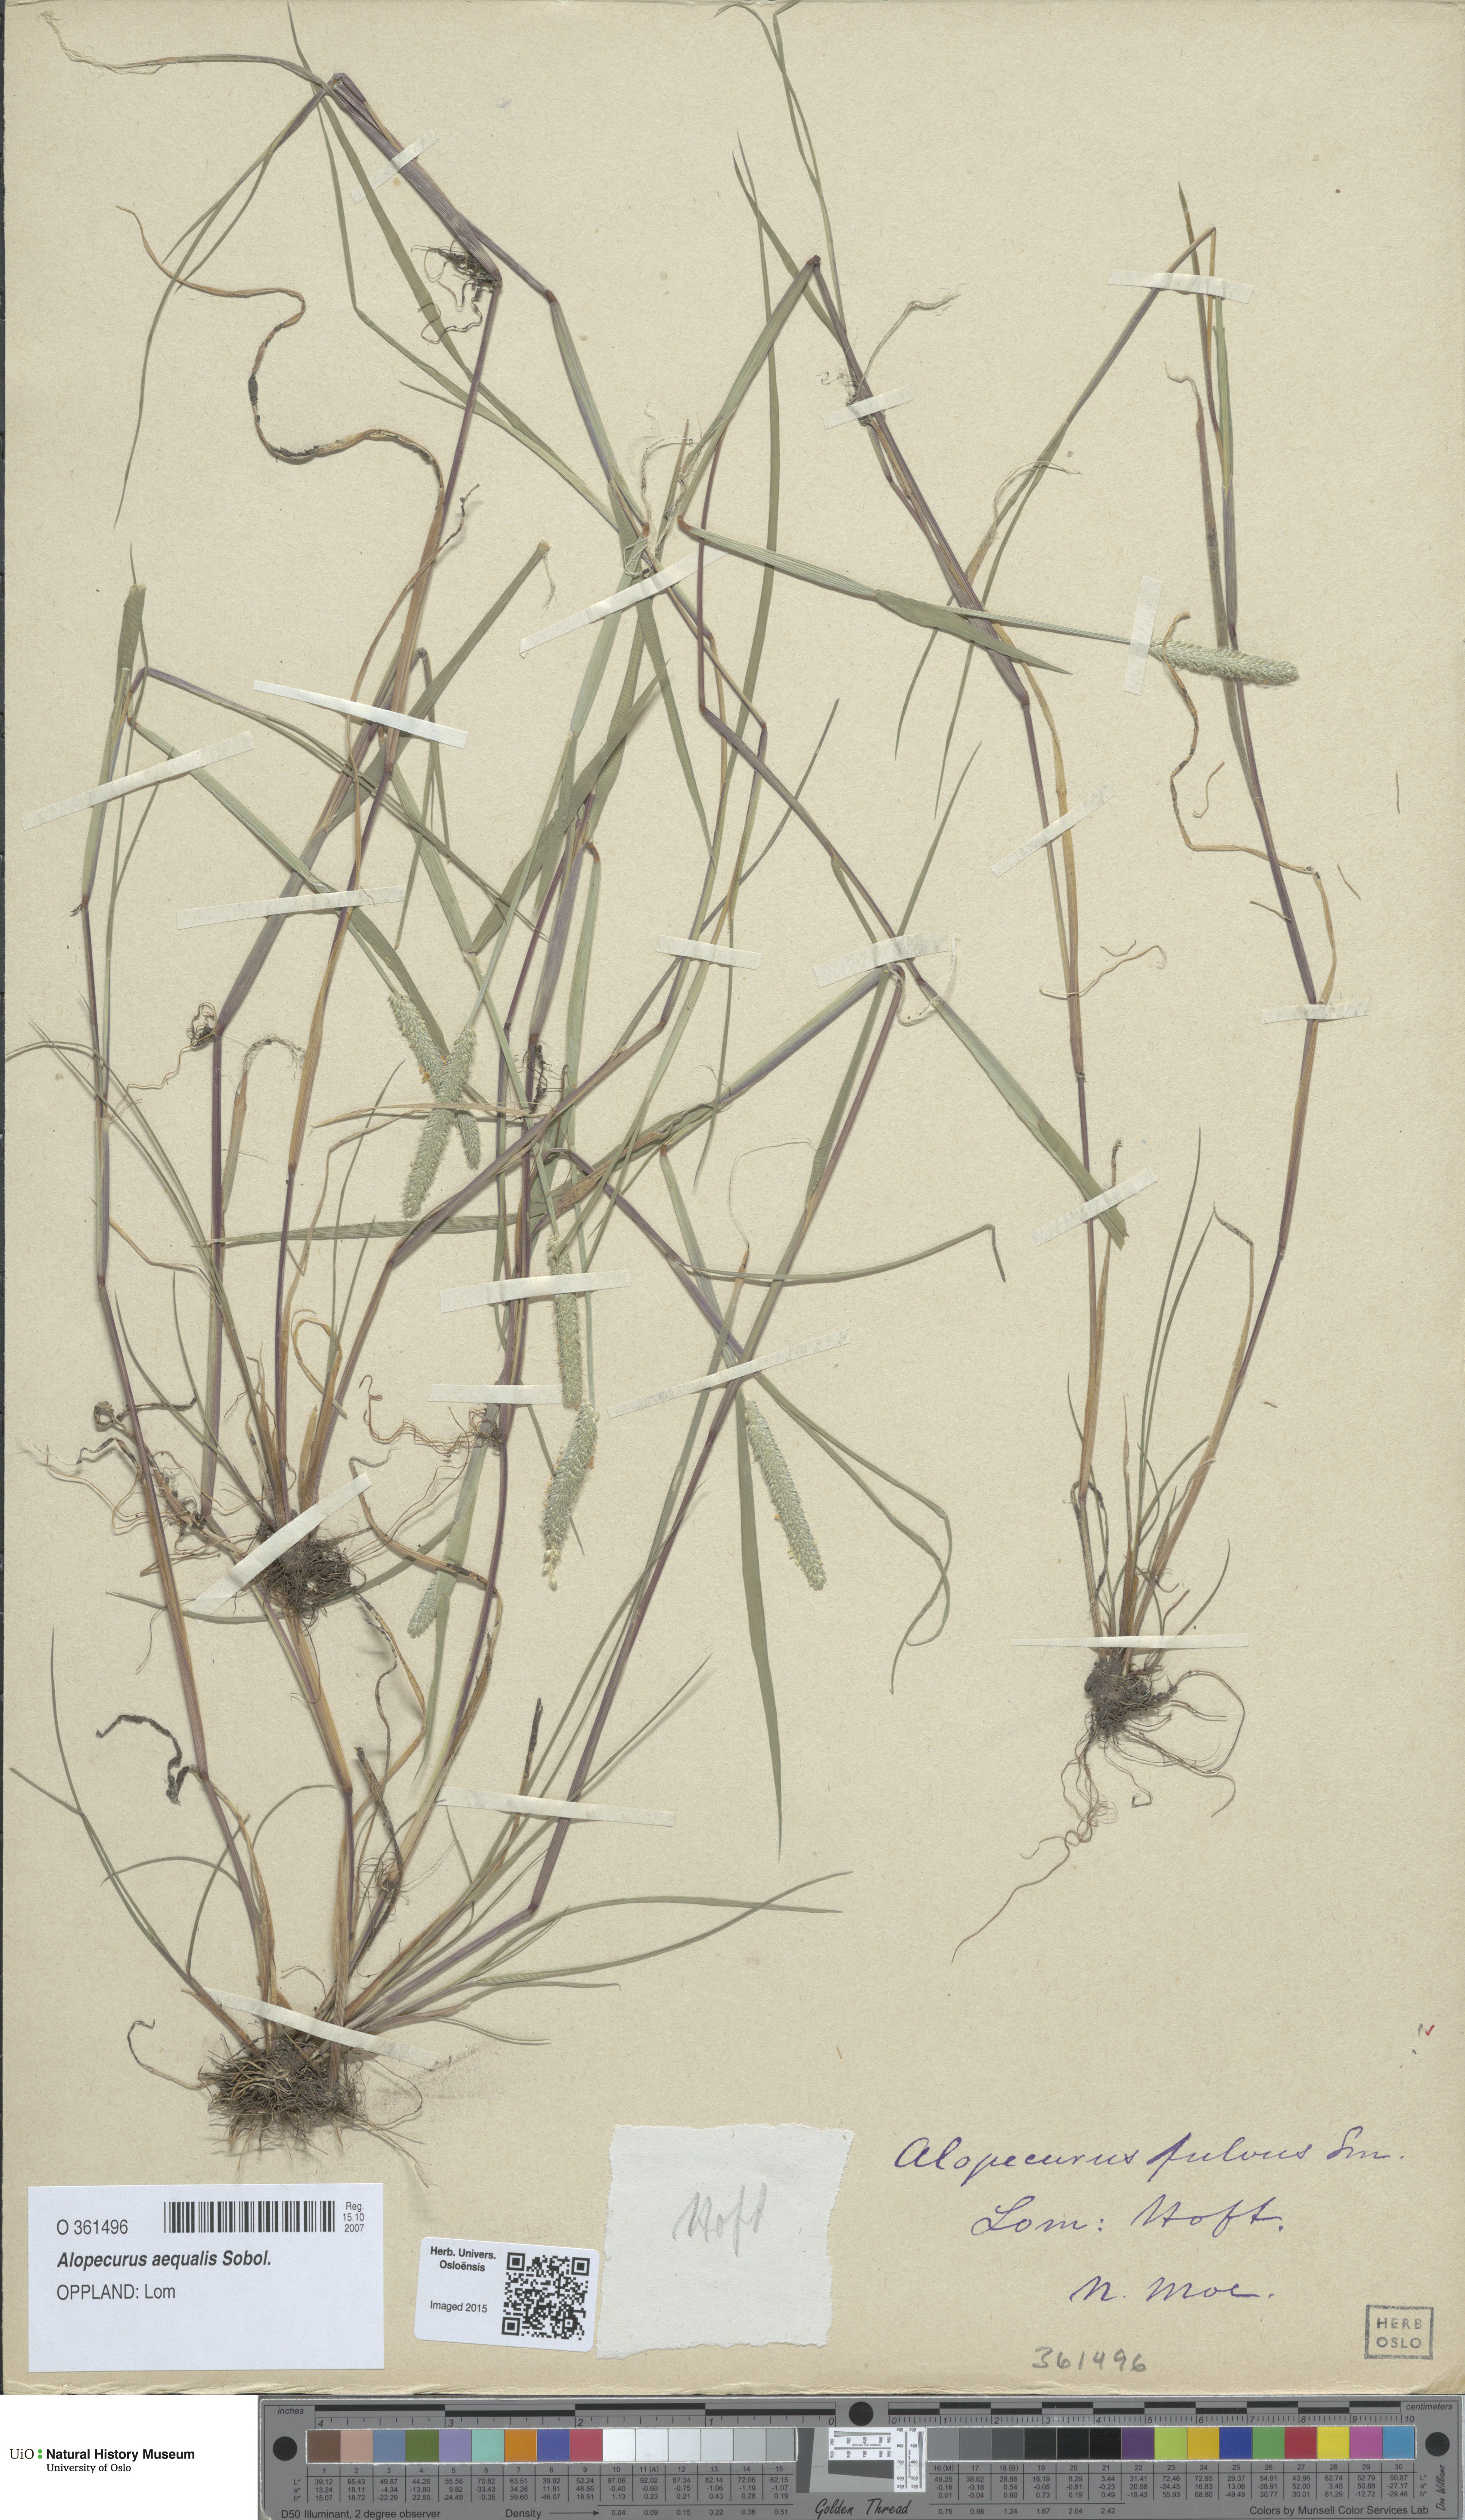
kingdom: Plantae
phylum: Tracheophyta
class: Liliopsida
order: Poales
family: Poaceae
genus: Alopecurus
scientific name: Alopecurus aequalis
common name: Orange foxtail
